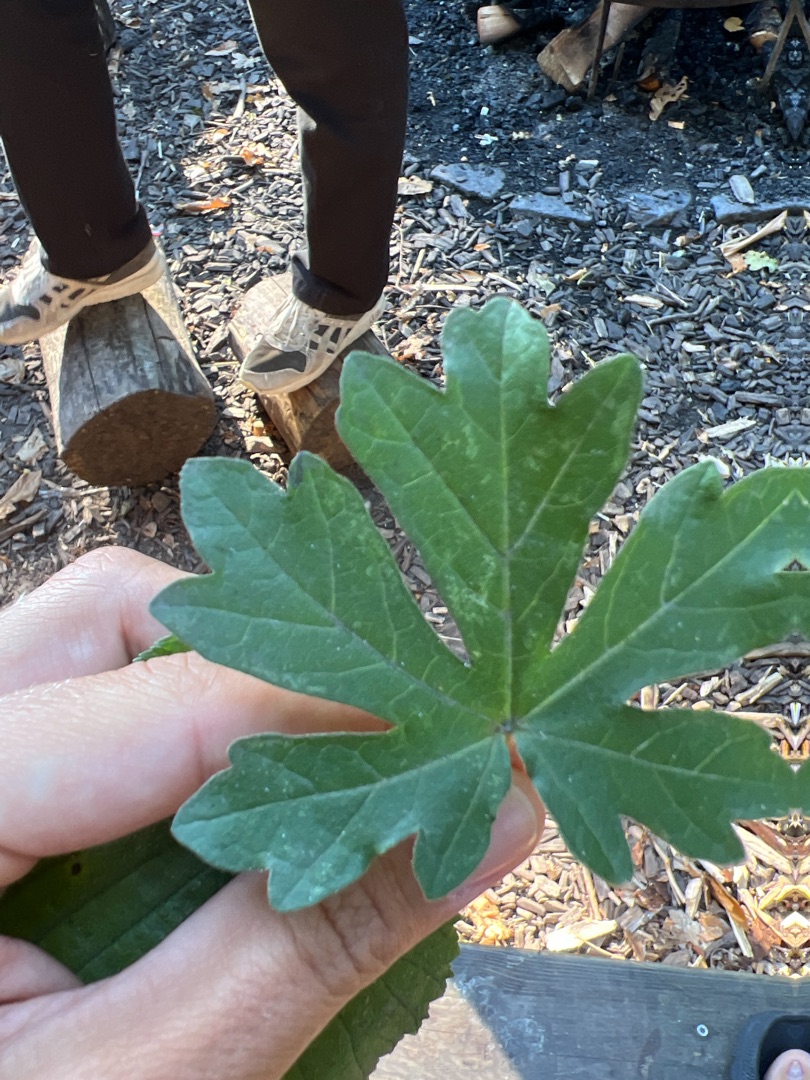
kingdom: Plantae
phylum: Tracheophyta
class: Magnoliopsida
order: Sapindales
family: Sapindaceae
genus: Acer
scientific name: Acer campestre
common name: Navr
